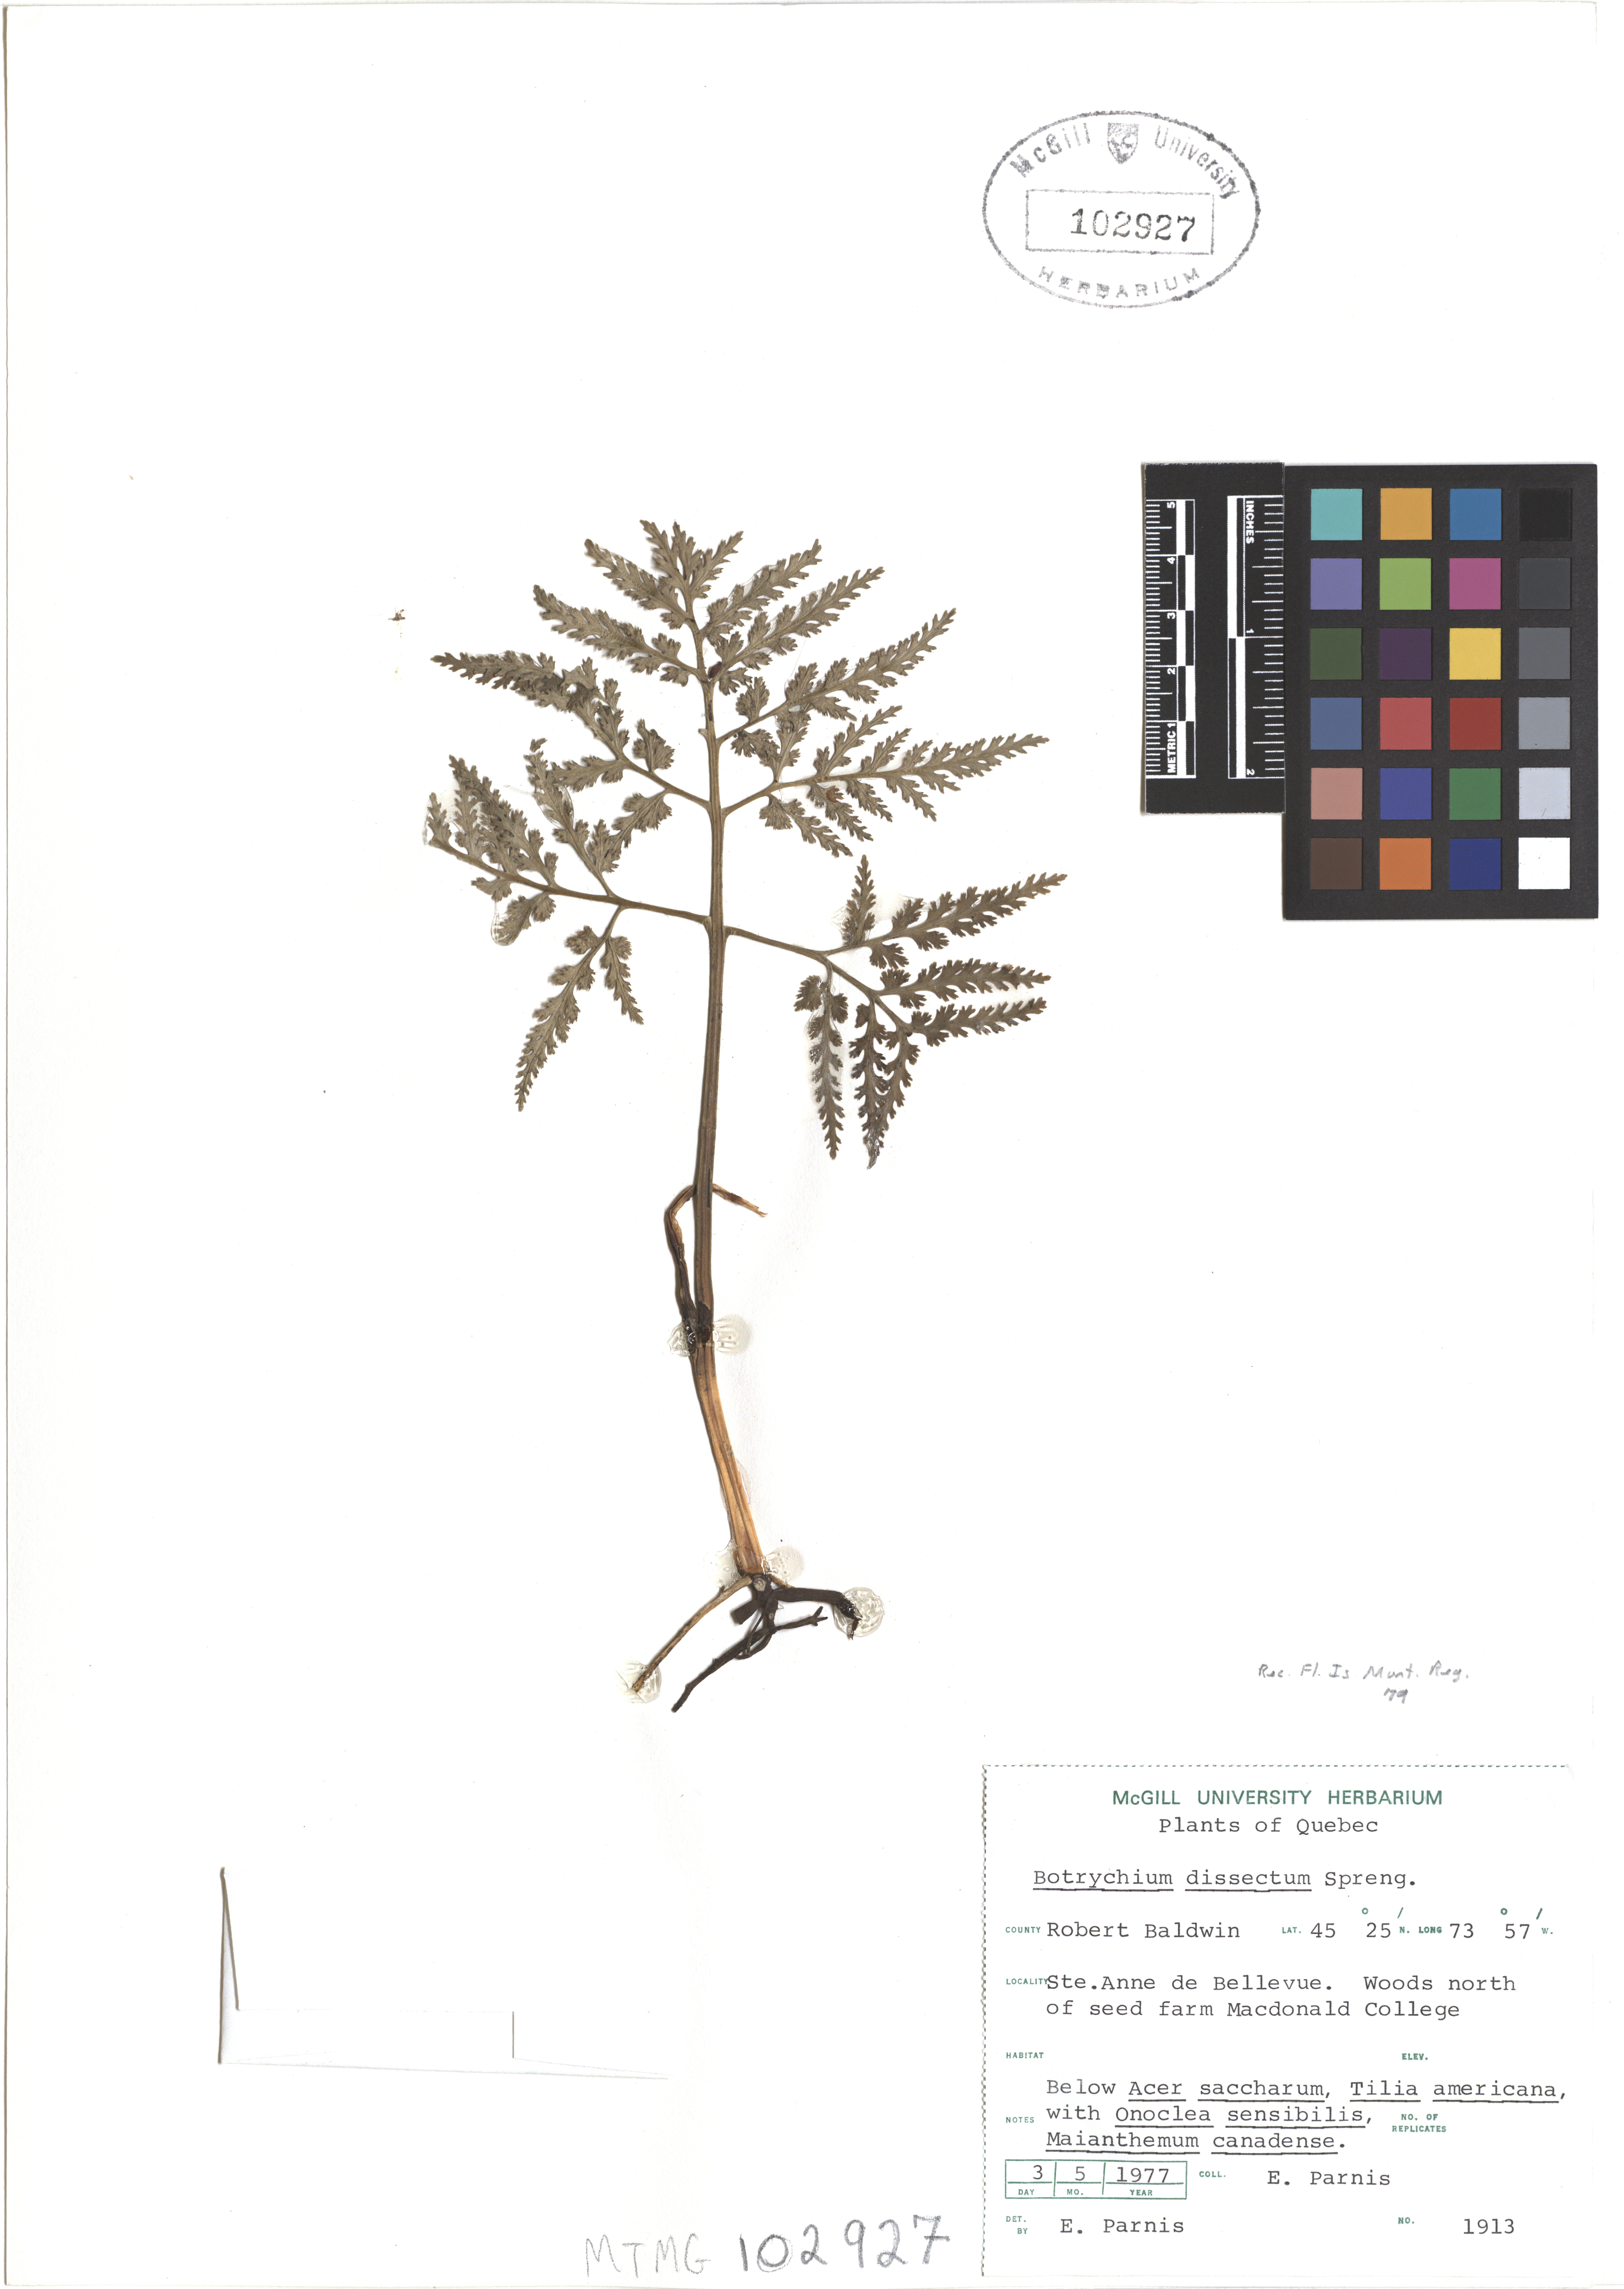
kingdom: Plantae
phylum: Tracheophyta
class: Polypodiopsida
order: Ophioglossales
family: Ophioglossaceae
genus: Sceptridium
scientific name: Sceptridium dissectum
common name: Cut-leaved grapefern
